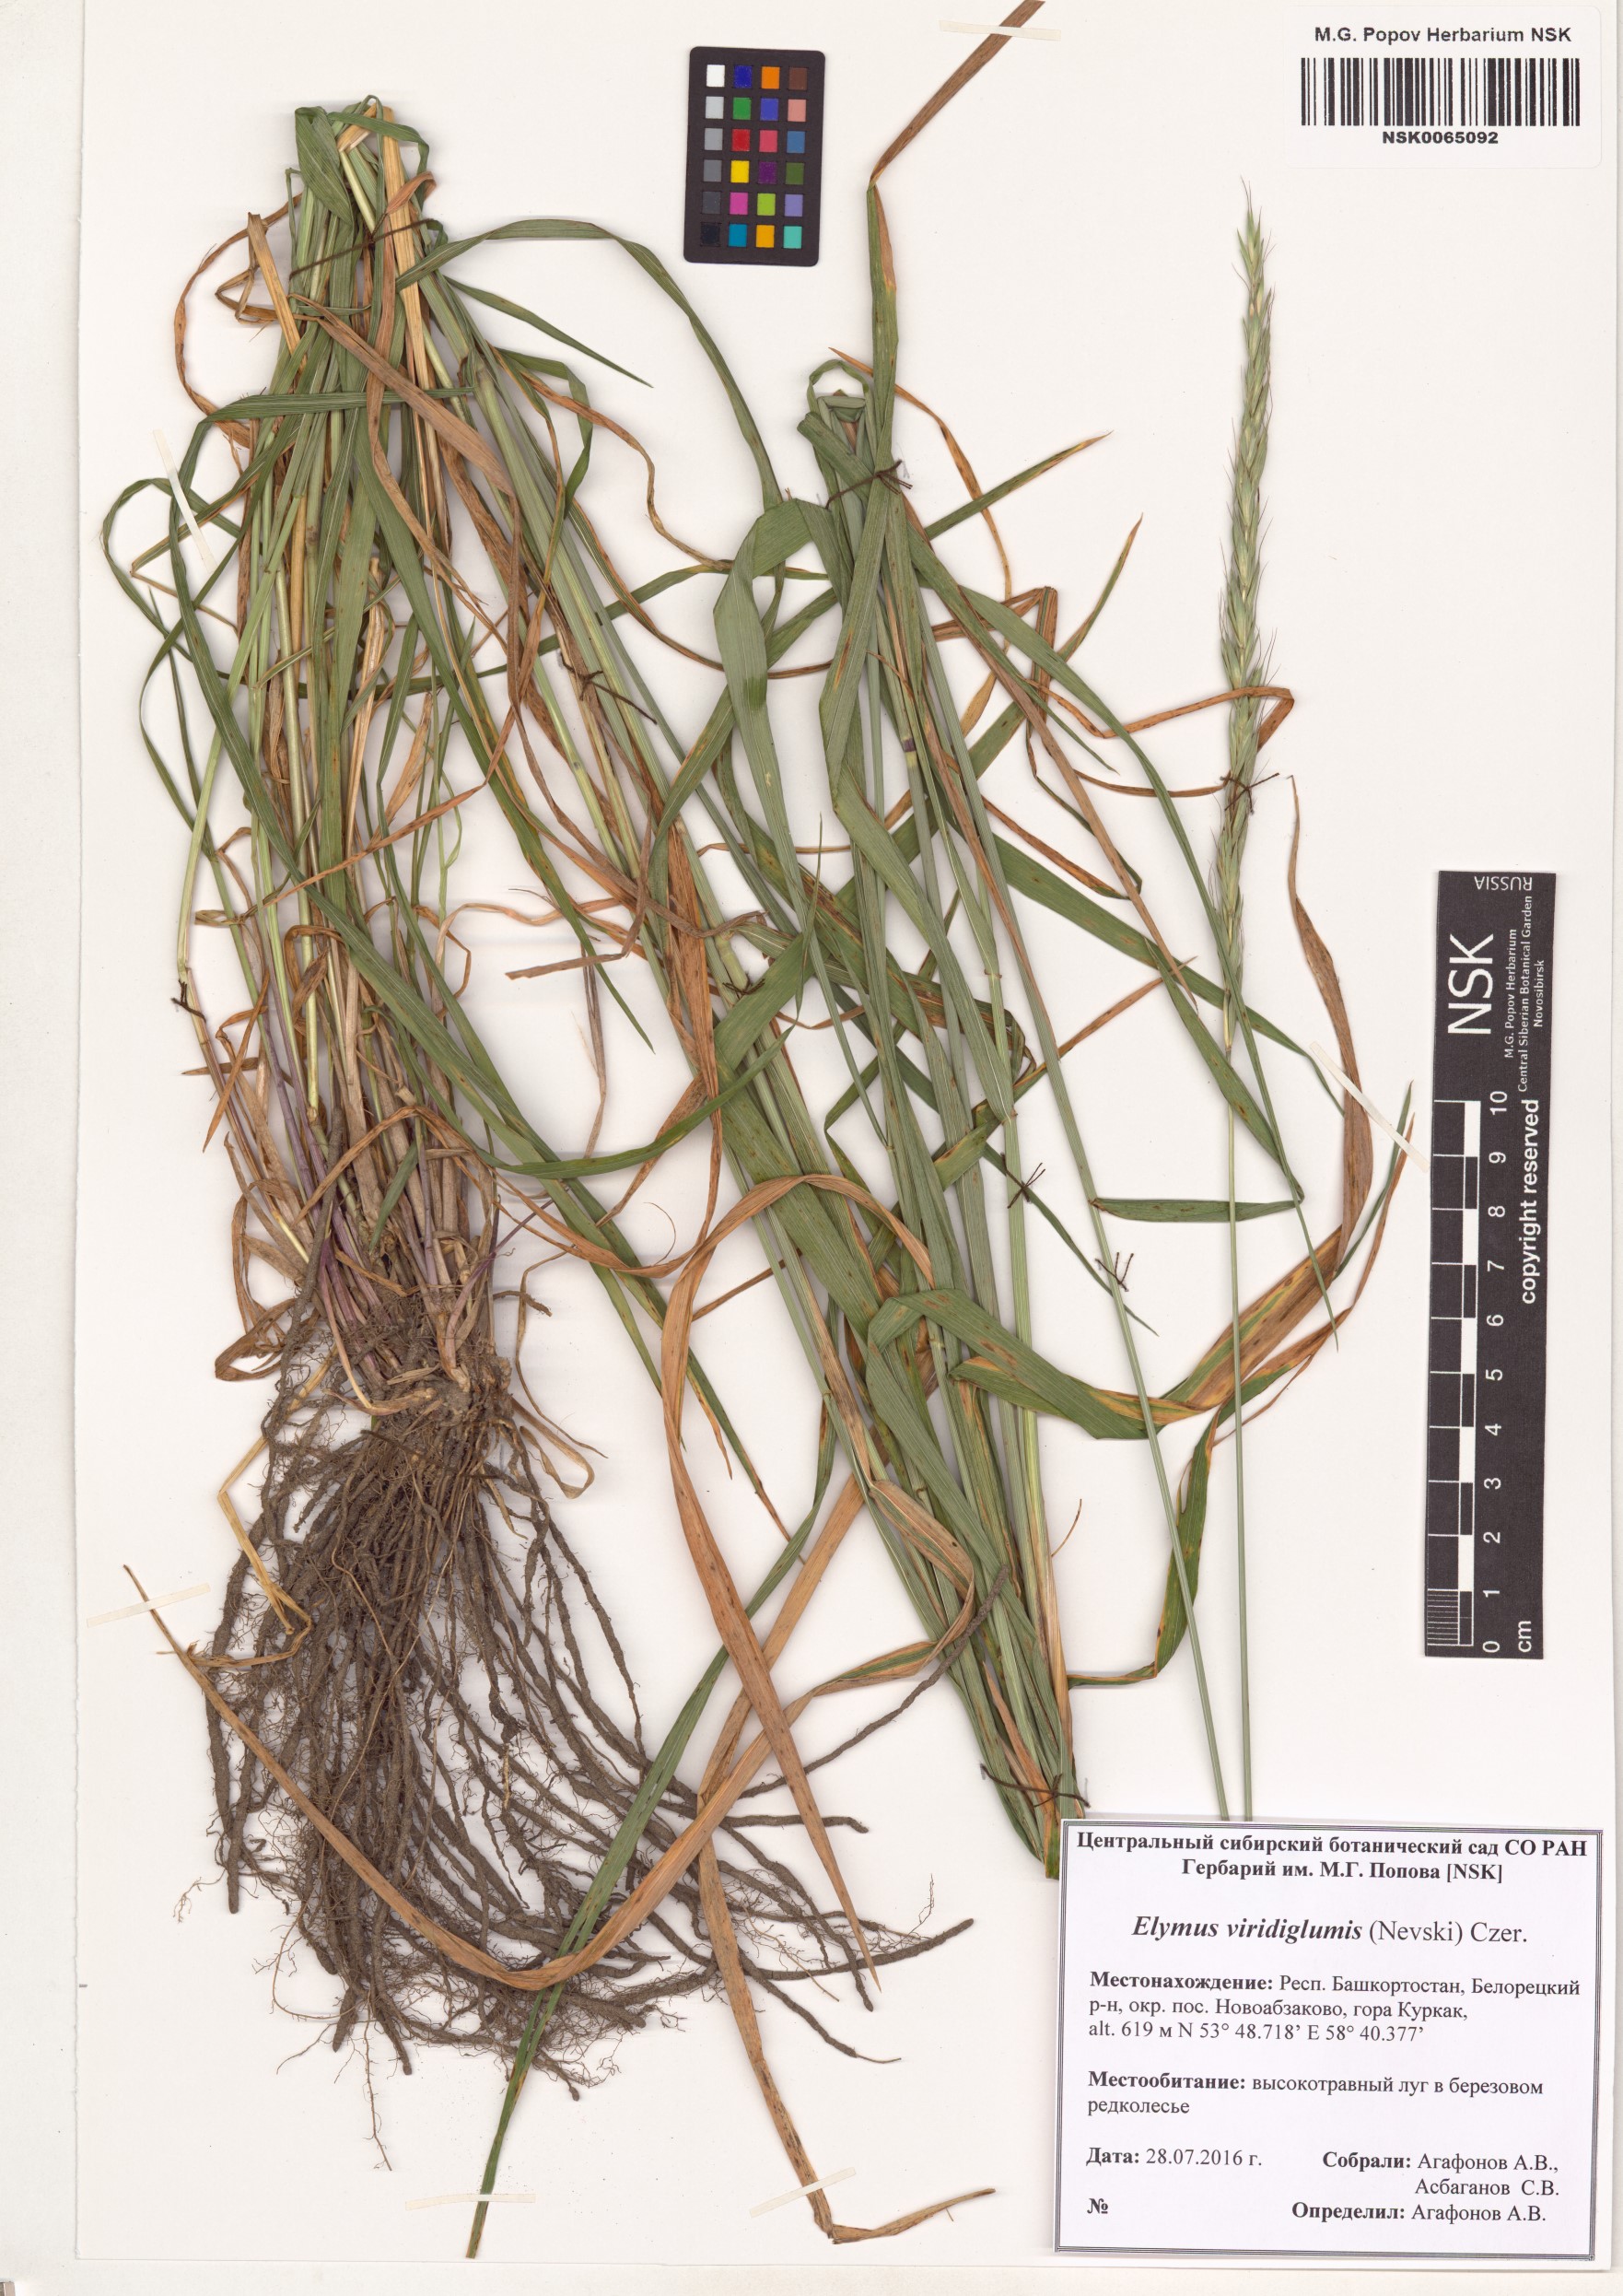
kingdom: Plantae
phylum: Tracheophyta
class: Liliopsida
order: Poales
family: Poaceae
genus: Elymus
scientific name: Elymus uralensis
